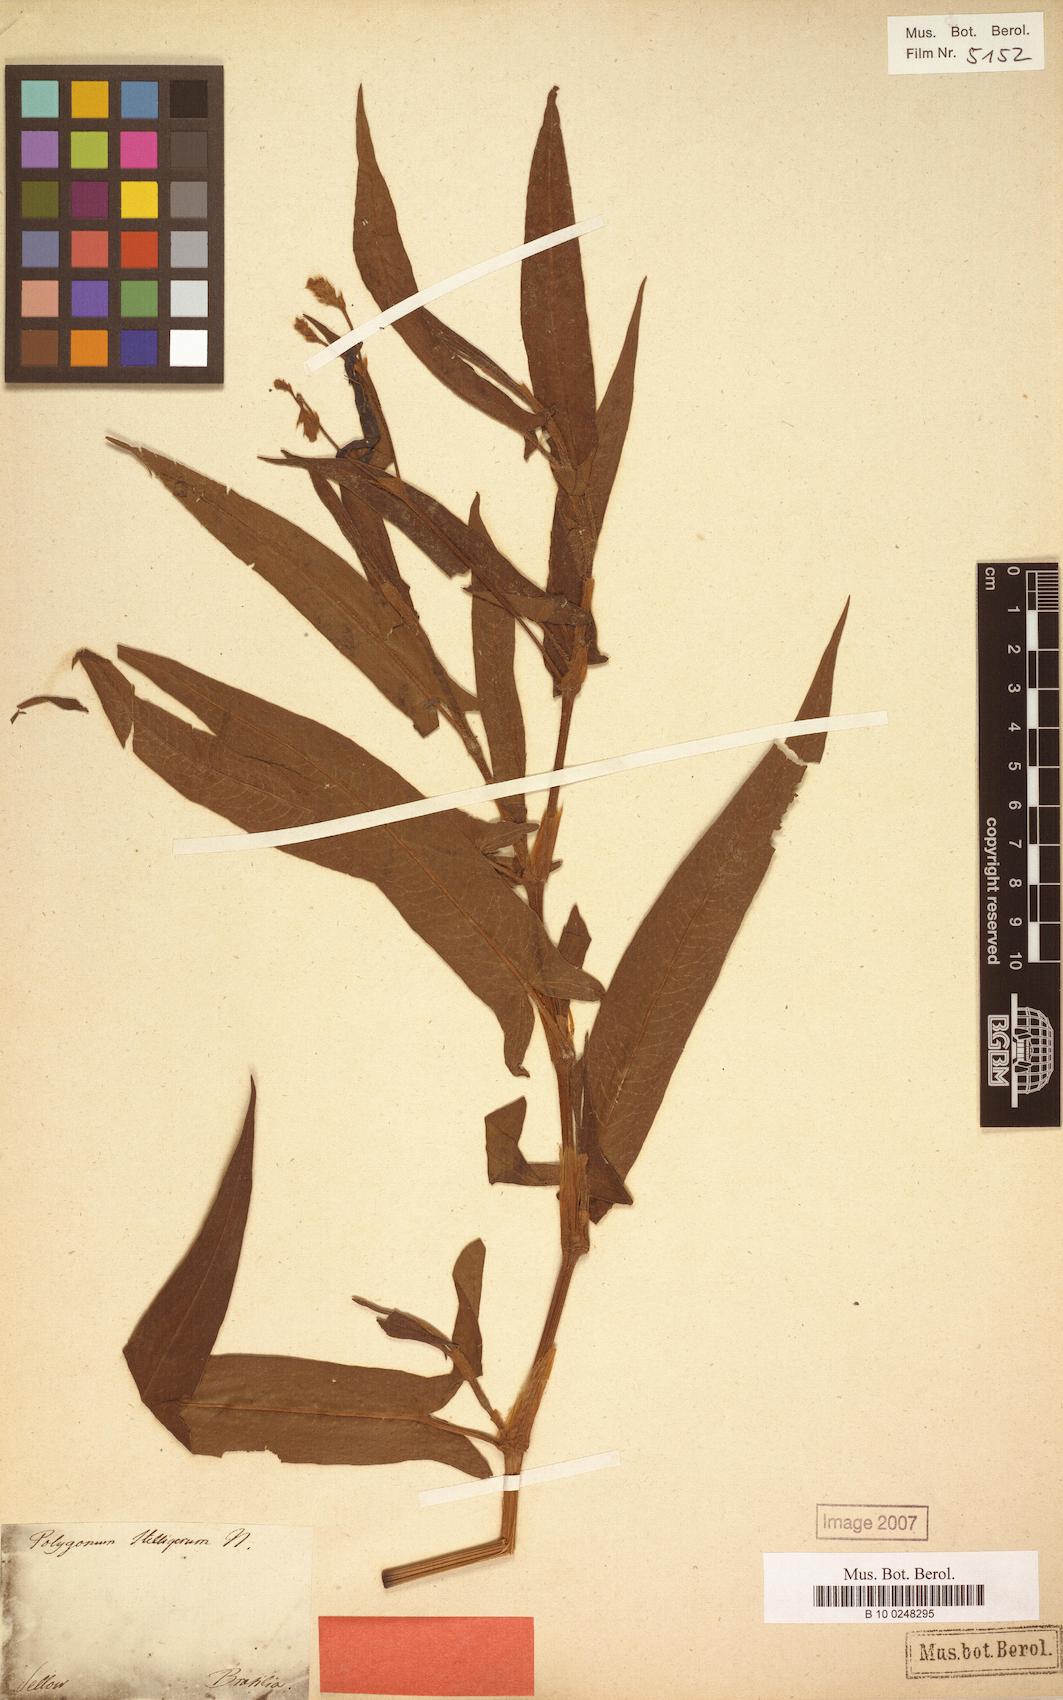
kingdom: Plantae
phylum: Tracheophyta
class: Magnoliopsida
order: Caryophyllales
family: Polygonaceae
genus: Persicaria
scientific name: Persicaria stelligera
